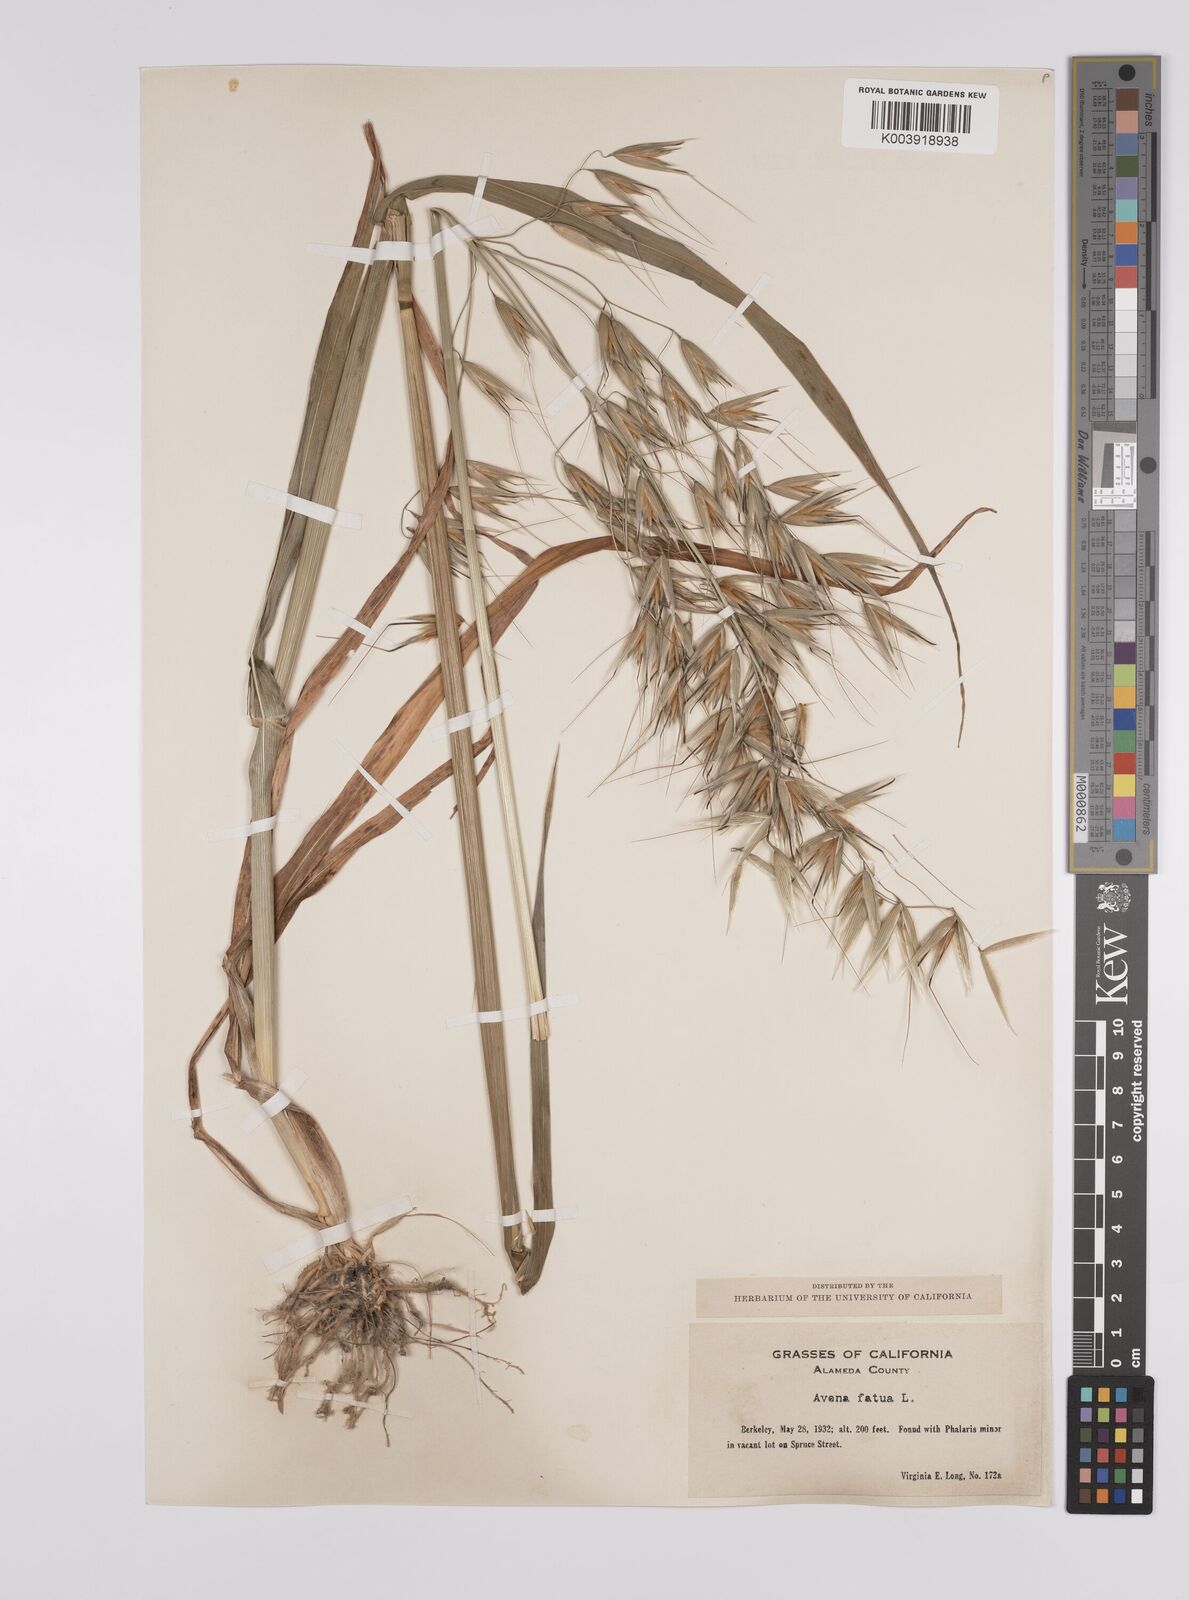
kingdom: Plantae
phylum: Tracheophyta
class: Liliopsida
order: Poales
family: Poaceae
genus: Avena
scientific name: Avena fatua
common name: Wild oat
